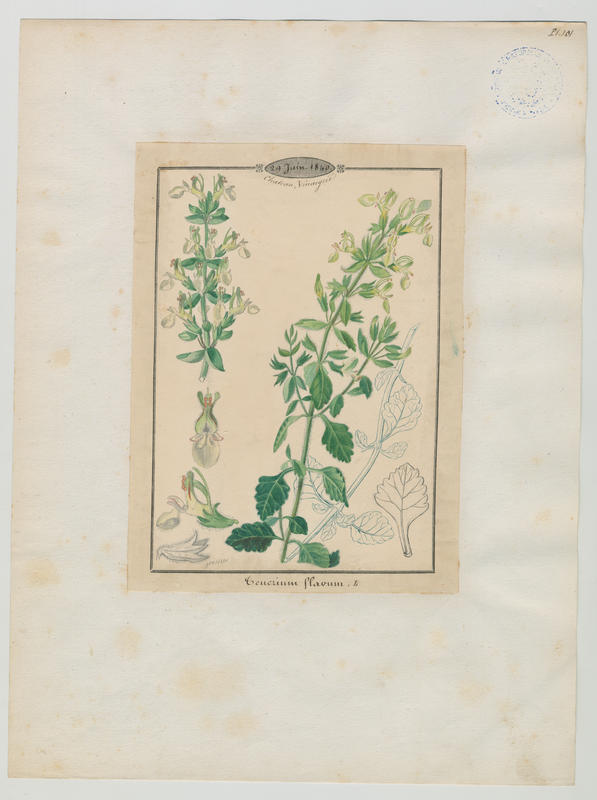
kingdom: Plantae
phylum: Tracheophyta
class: Magnoliopsida
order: Lamiales
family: Lamiaceae
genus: Teucrium
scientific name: Teucrium flavum
